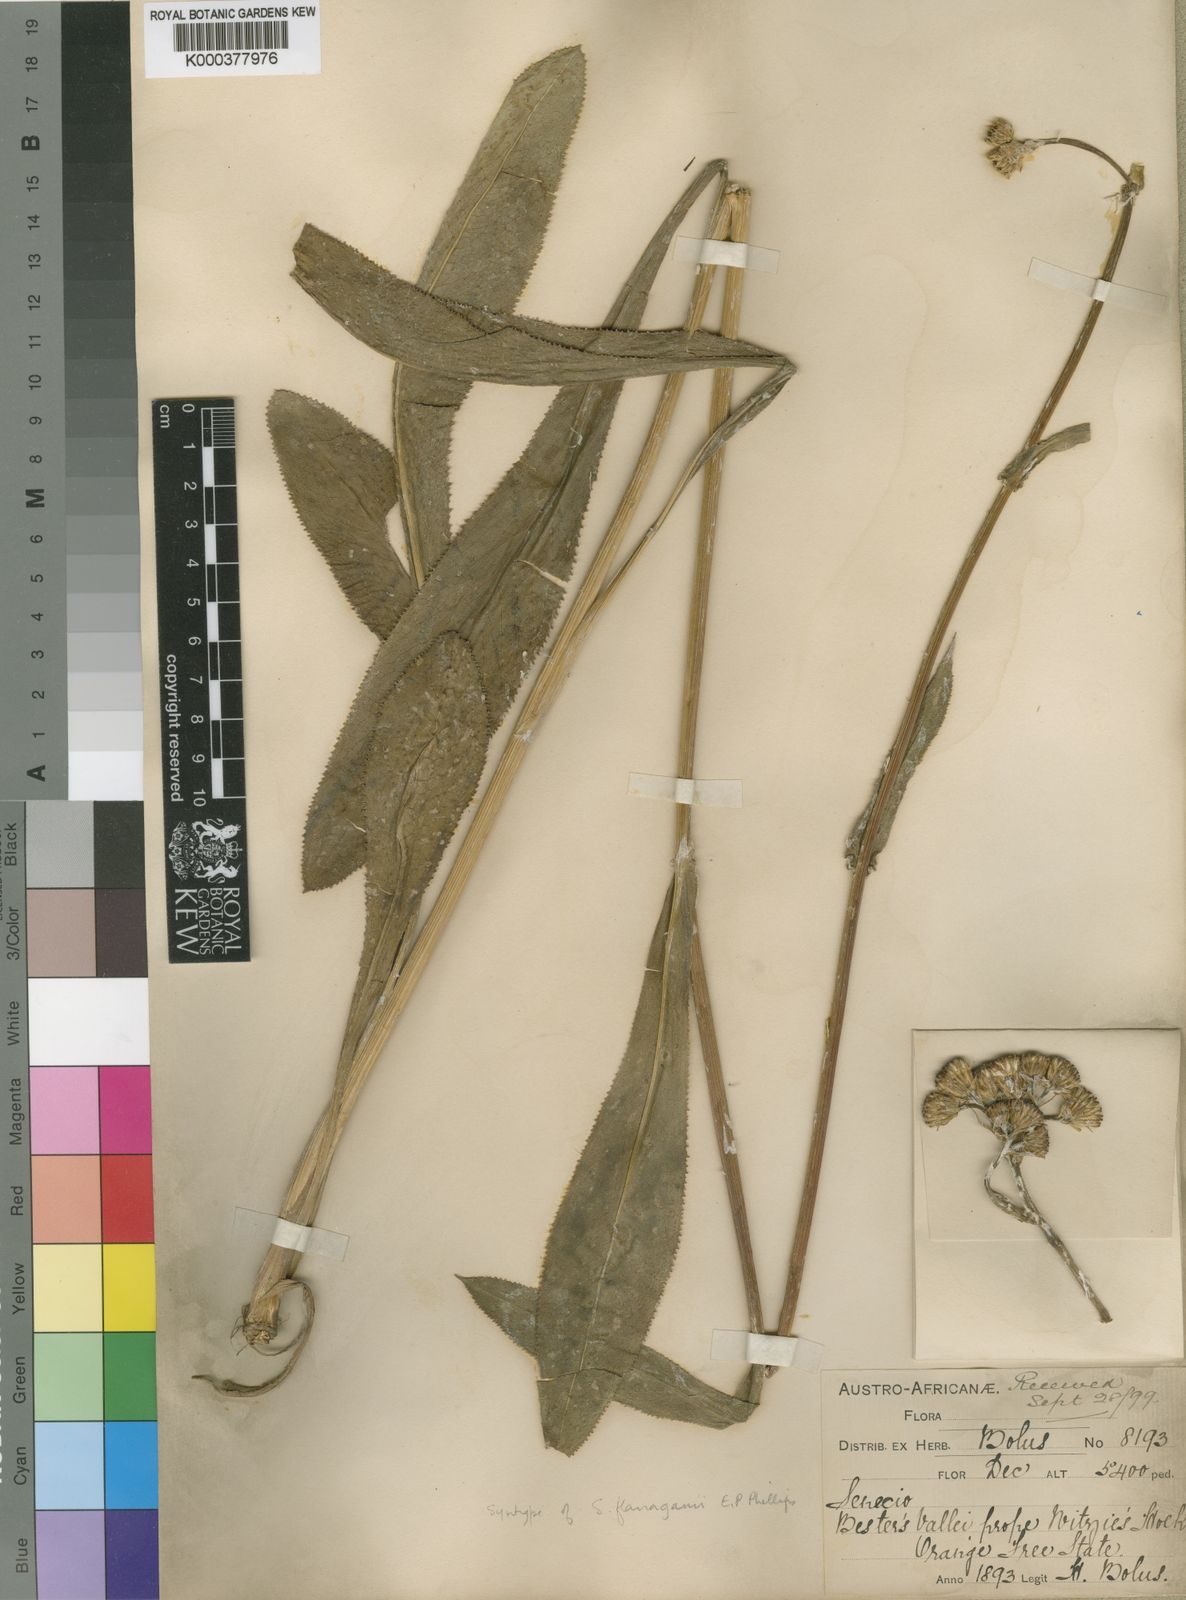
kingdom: Plantae
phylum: Tracheophyta
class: Magnoliopsida
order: Asterales
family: Asteraceae
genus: Senecio
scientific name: Senecio conrathii
